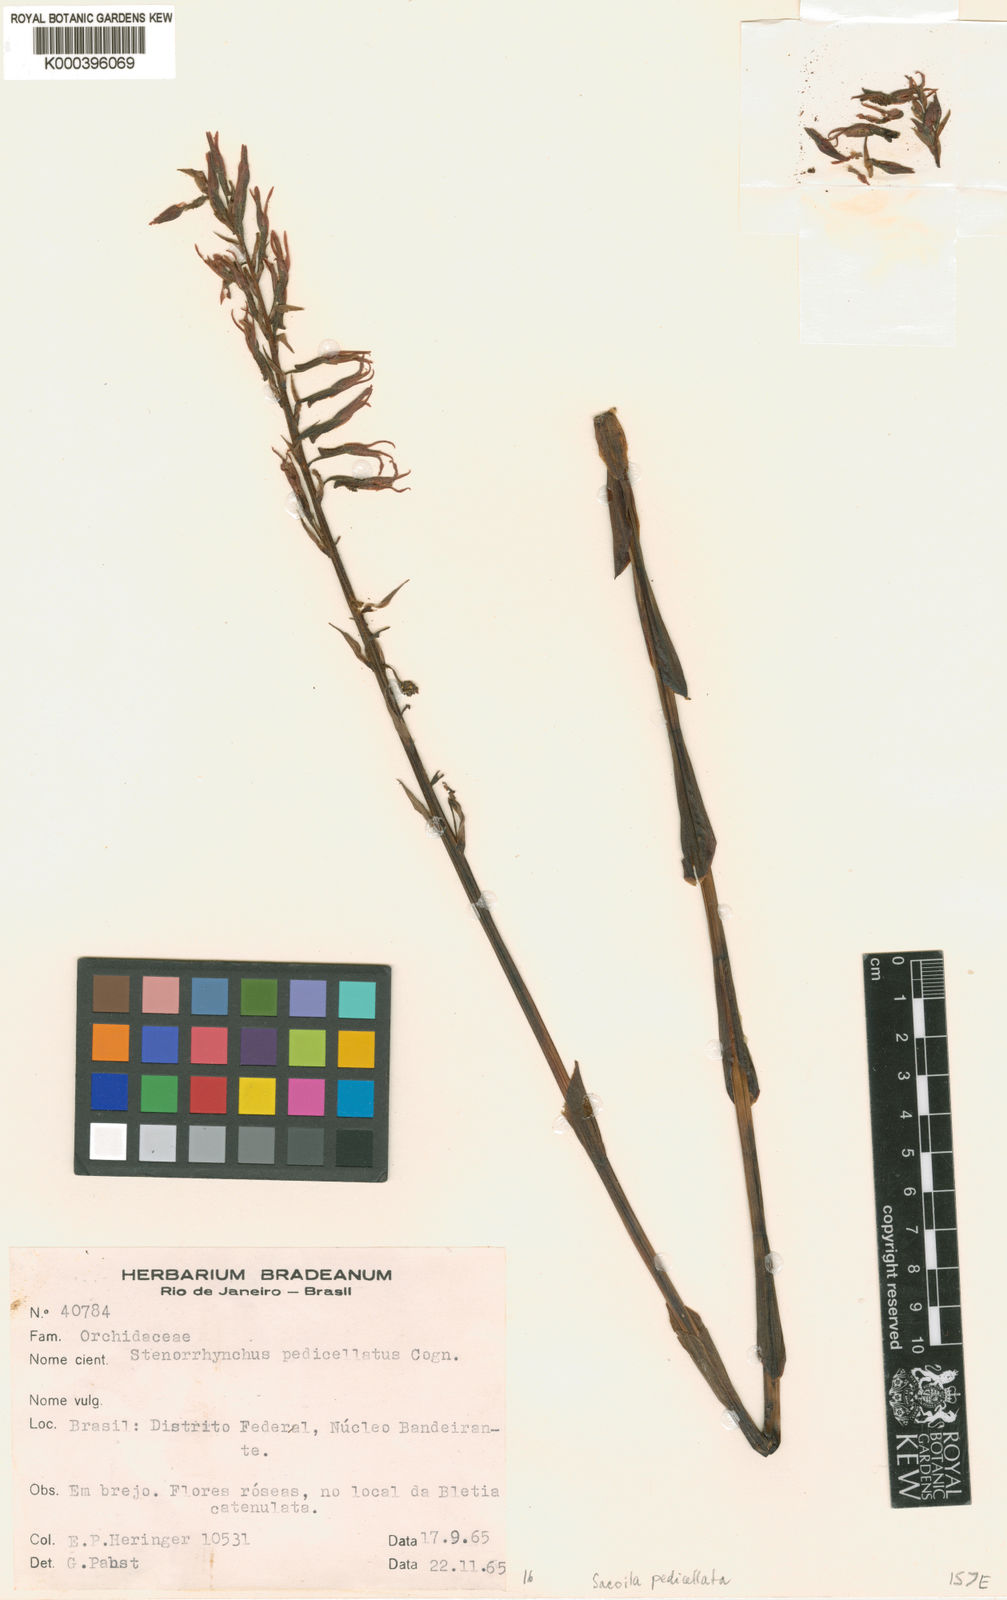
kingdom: Plantae
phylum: Tracheophyta
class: Liliopsida
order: Asparagales
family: Orchidaceae
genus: Sacoila
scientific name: Sacoila lanceolata
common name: Leafless beaked ladiestresses
